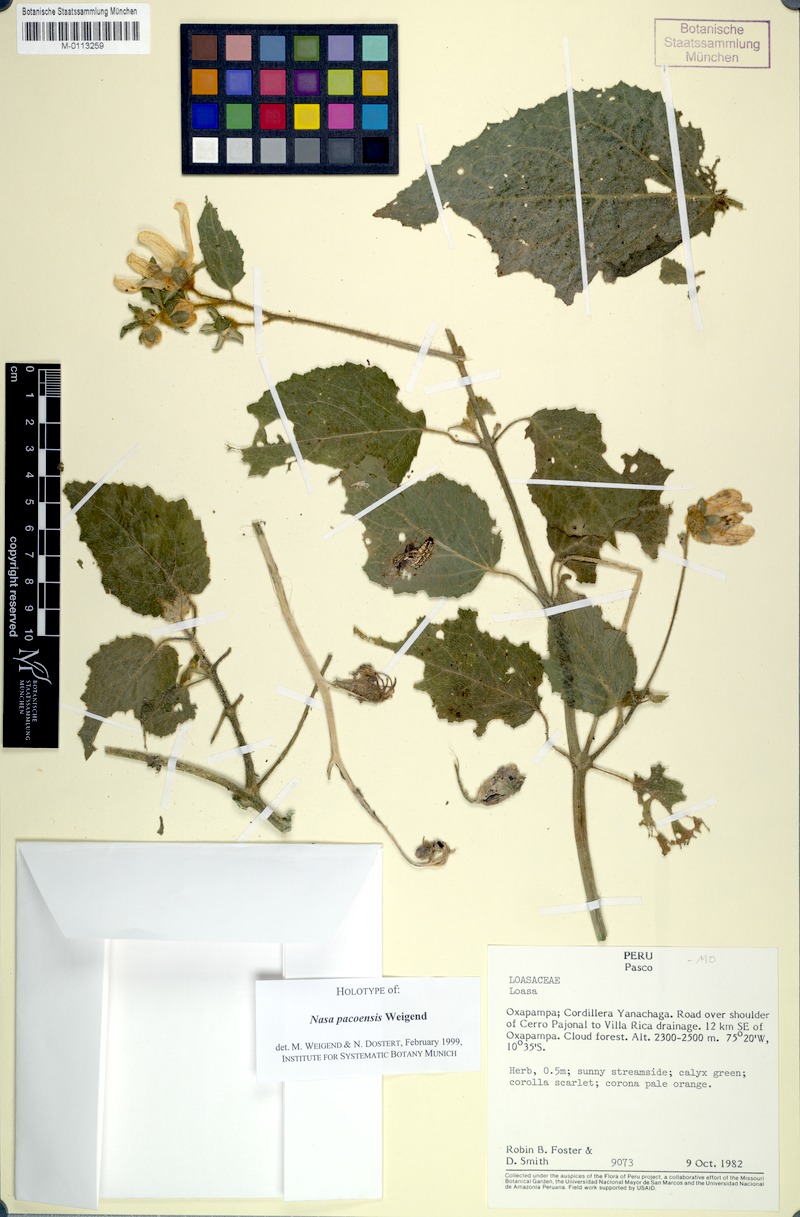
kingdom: Plantae
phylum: Tracheophyta
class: Magnoliopsida
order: Cornales
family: Loasaceae
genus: Nasa
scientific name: Nasa pascoensis
